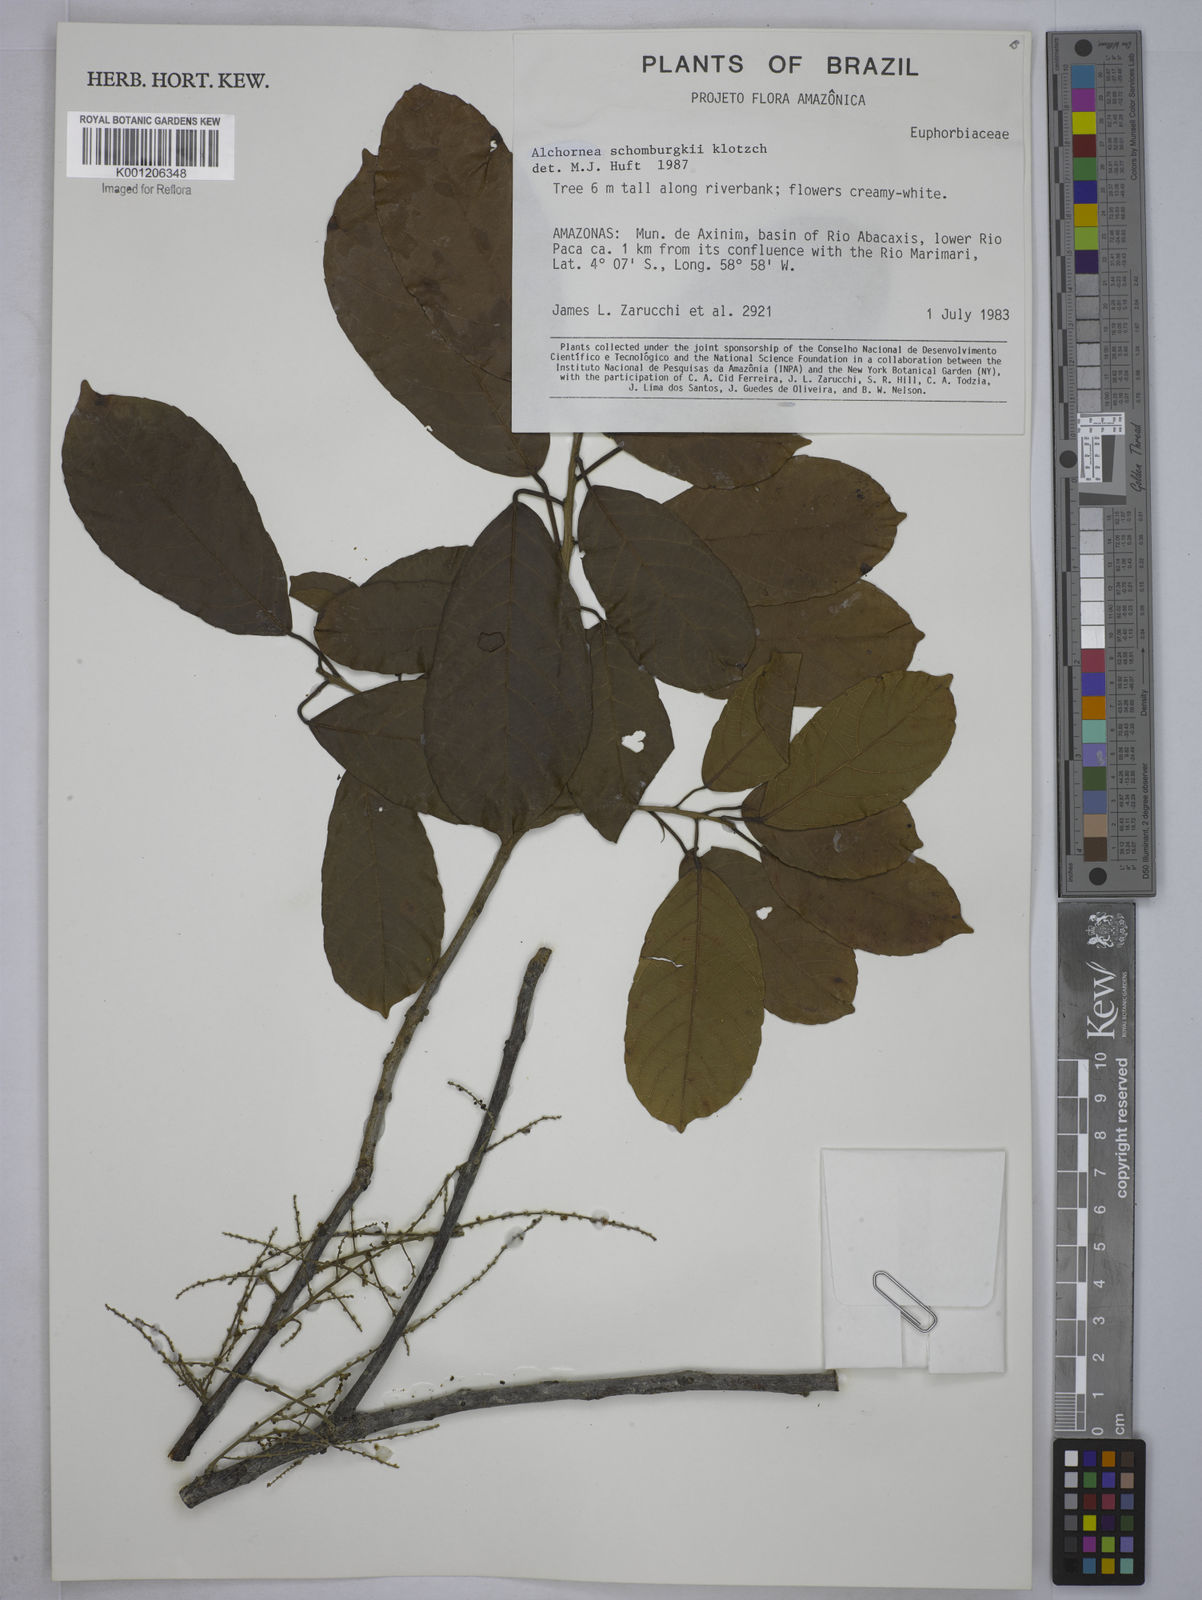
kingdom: Plantae
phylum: Tracheophyta
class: Magnoliopsida
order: Malpighiales
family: Euphorbiaceae
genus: Alchornea
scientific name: Alchornea discolor
